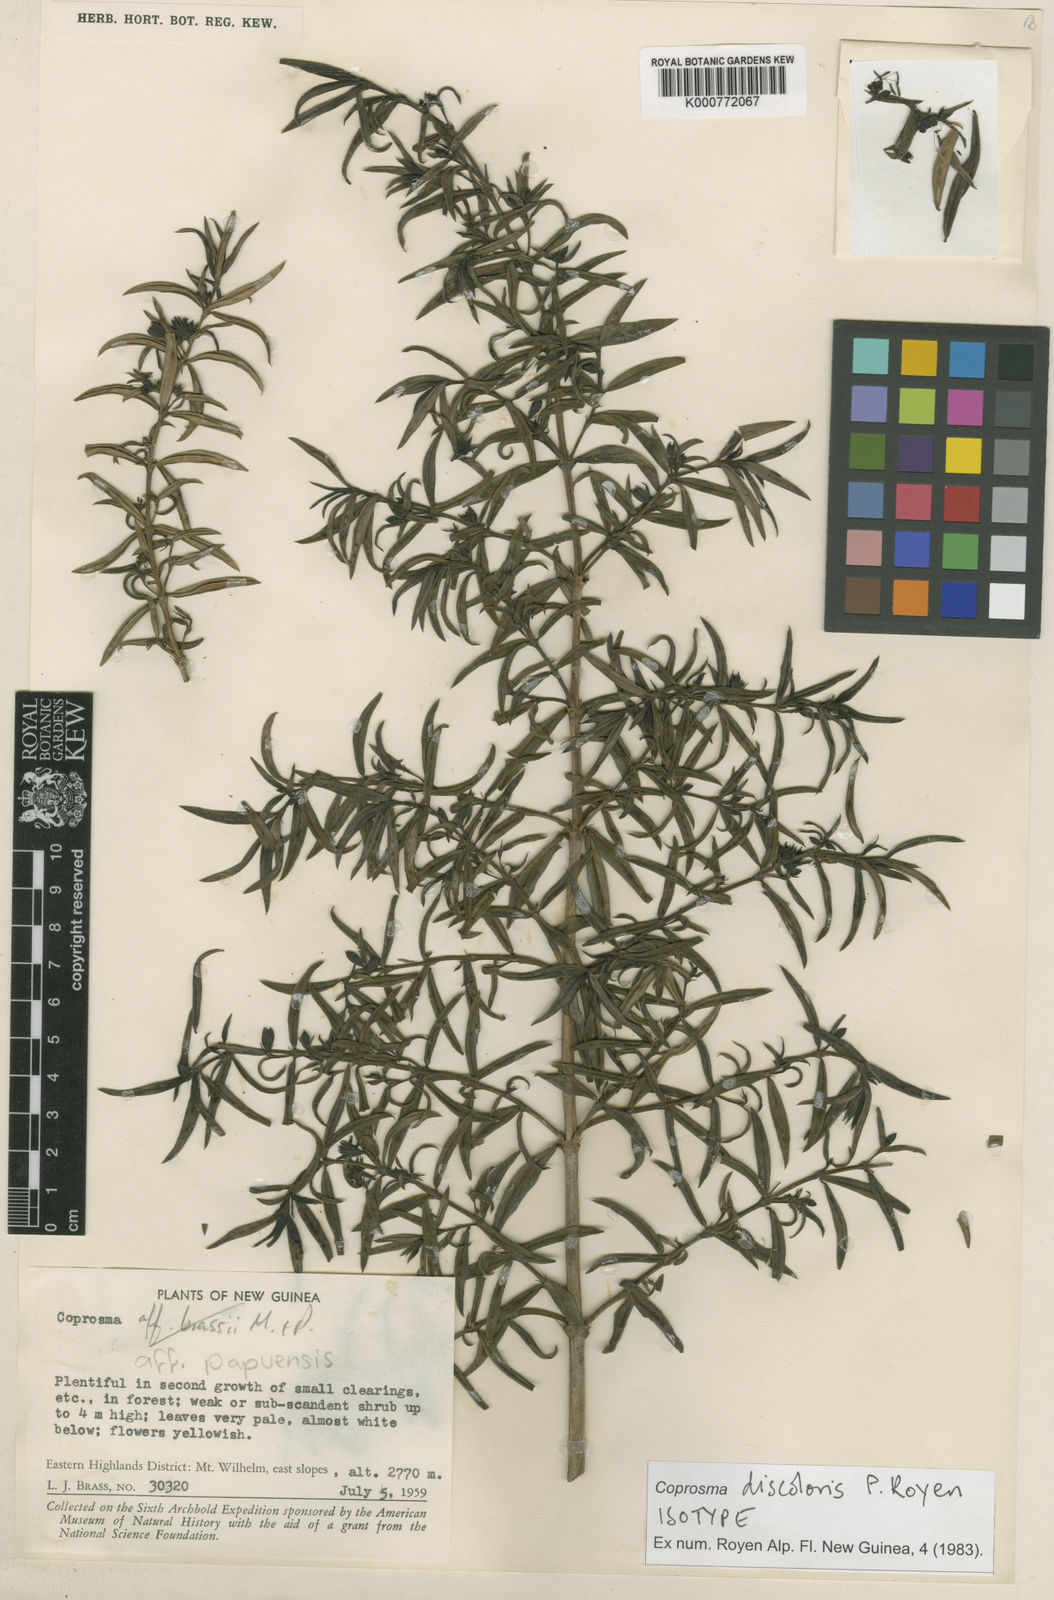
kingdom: Plantae
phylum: Tracheophyta
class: Magnoliopsida
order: Gentianales
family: Rubiaceae
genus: Coprosma
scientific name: Coprosma papuensis
